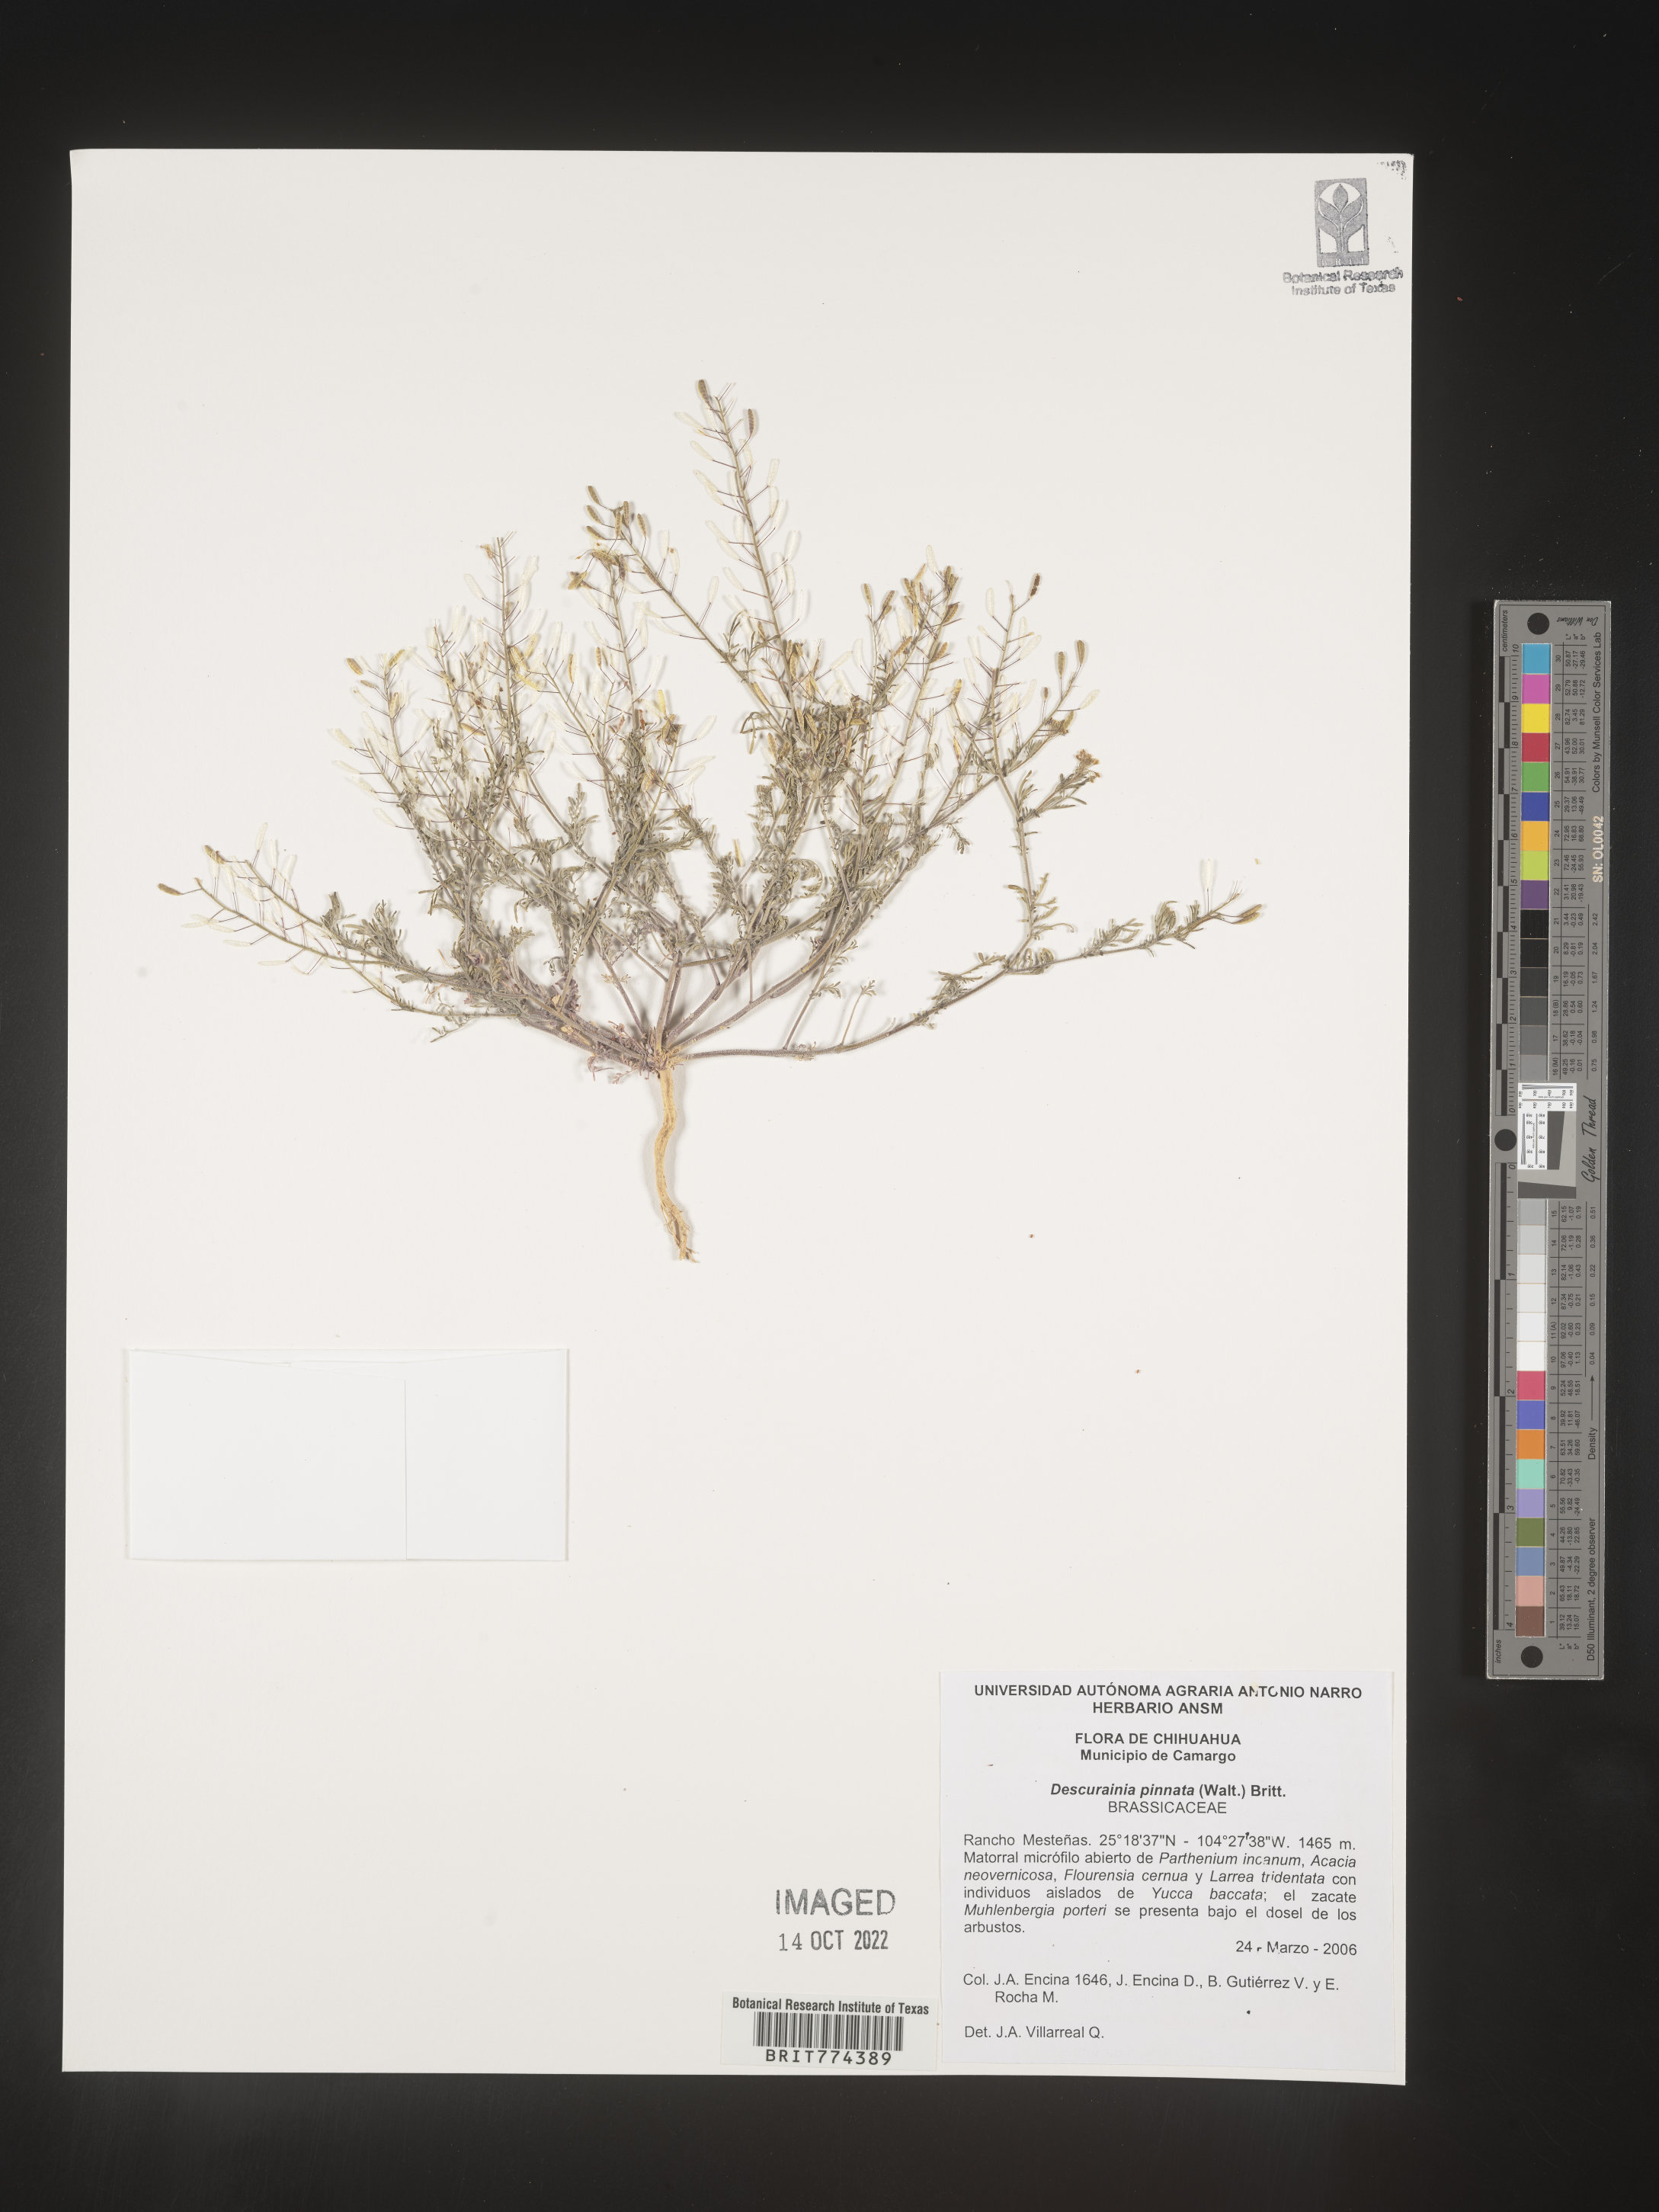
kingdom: Plantae
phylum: Tracheophyta
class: Magnoliopsida
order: Brassicales
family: Brassicaceae
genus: Descurainia
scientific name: Descurainia
